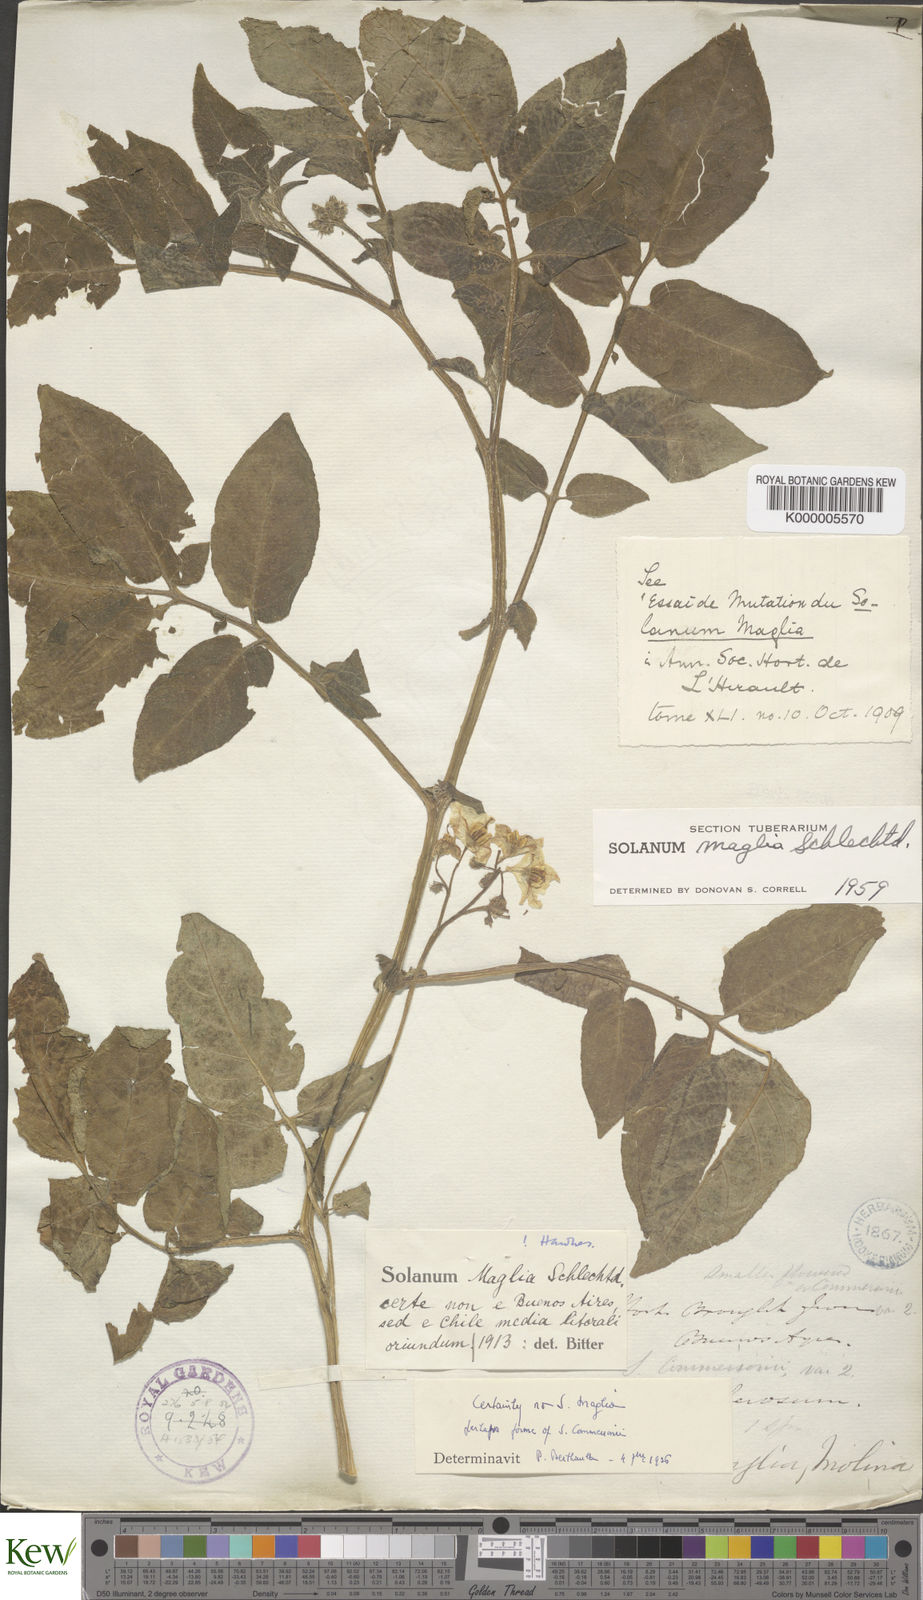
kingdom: Plantae
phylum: Tracheophyta
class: Magnoliopsida
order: Solanales
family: Solanaceae
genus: Solanum
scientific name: Solanum maglia
